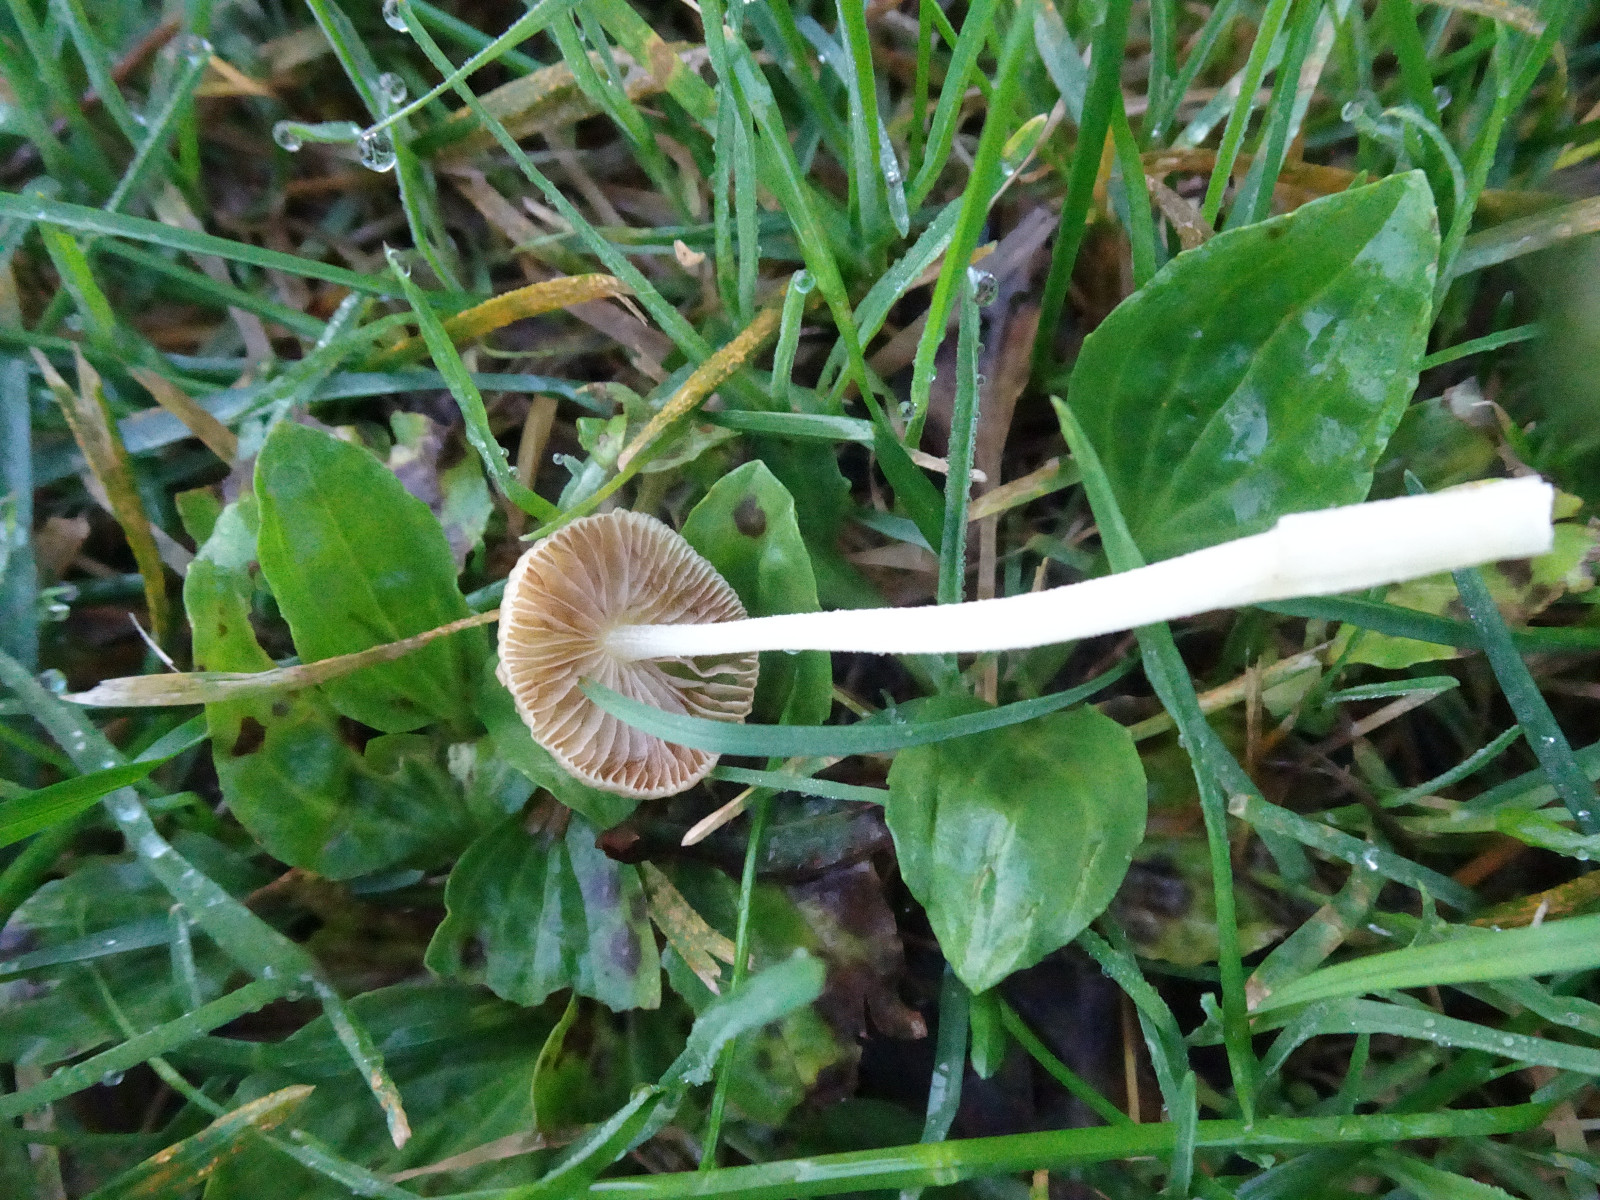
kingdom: Fungi
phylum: Basidiomycota
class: Agaricomycetes
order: Agaricales
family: Bolbitiaceae
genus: Bolbitius
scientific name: Bolbitius titubans
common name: almindelig gulhat
